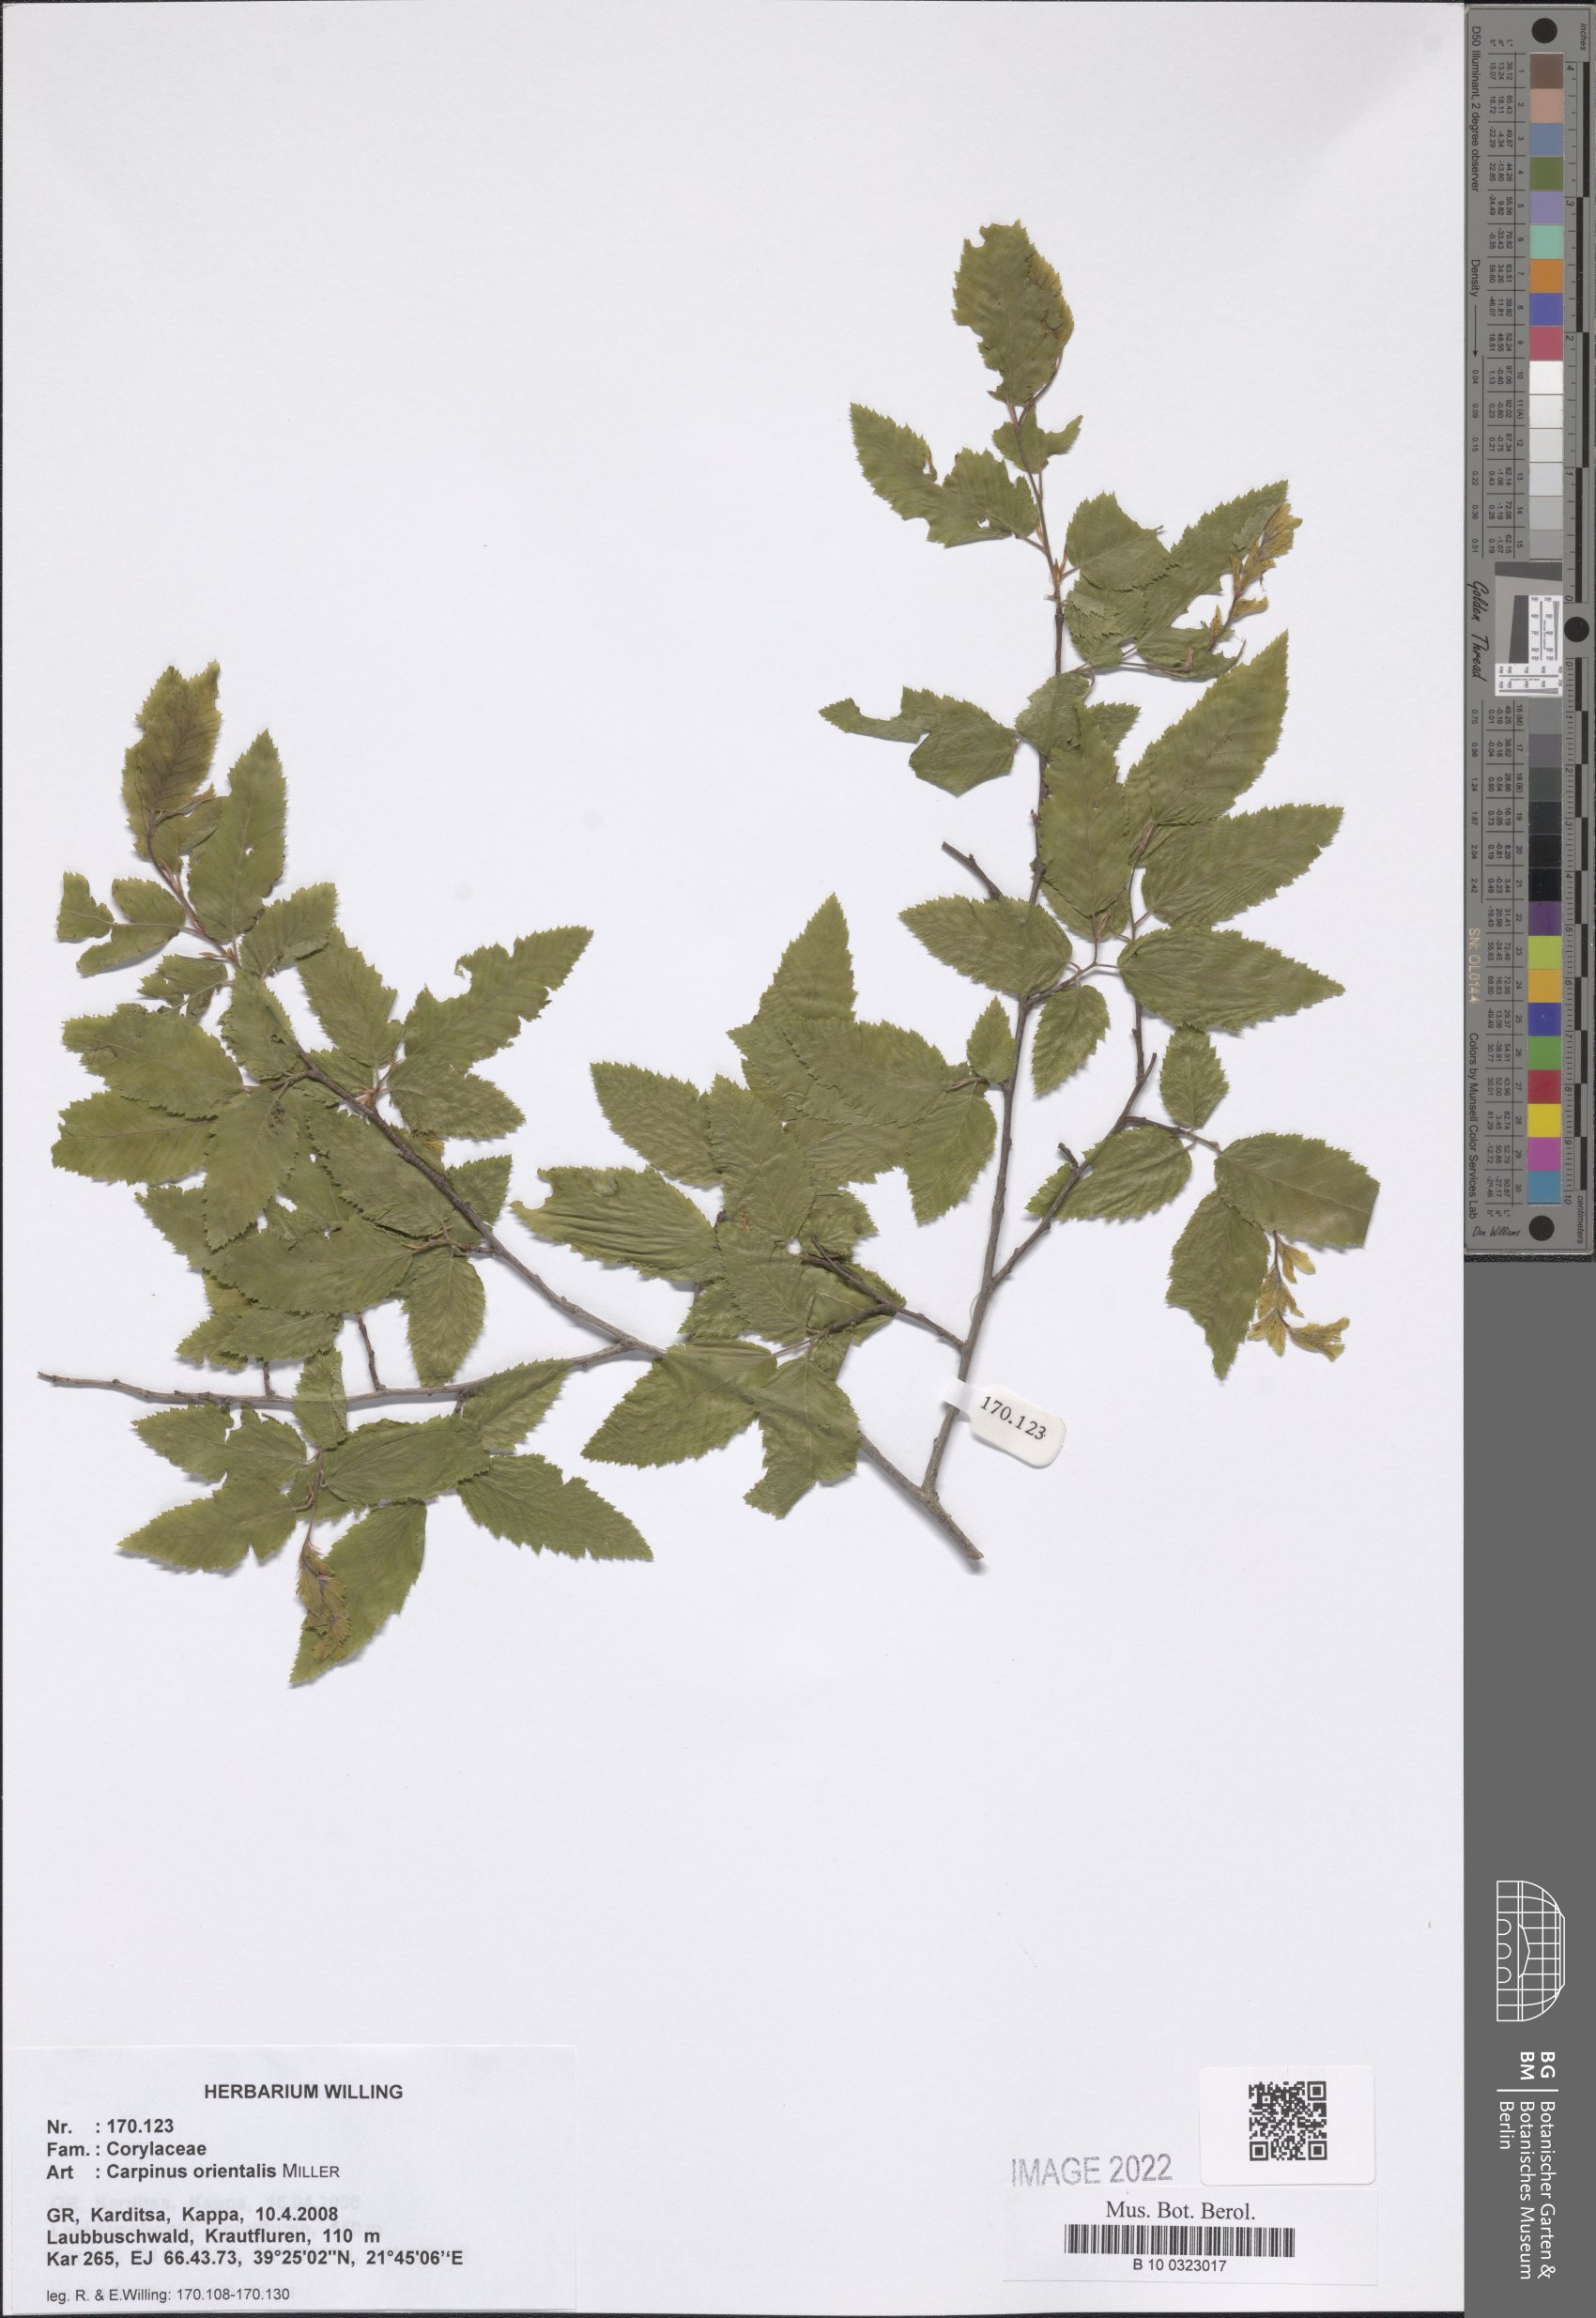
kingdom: Plantae
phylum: Tracheophyta
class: Magnoliopsida
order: Fagales
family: Betulaceae
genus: Carpinus
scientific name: Carpinus orientalis
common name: Eastern hornbeam
